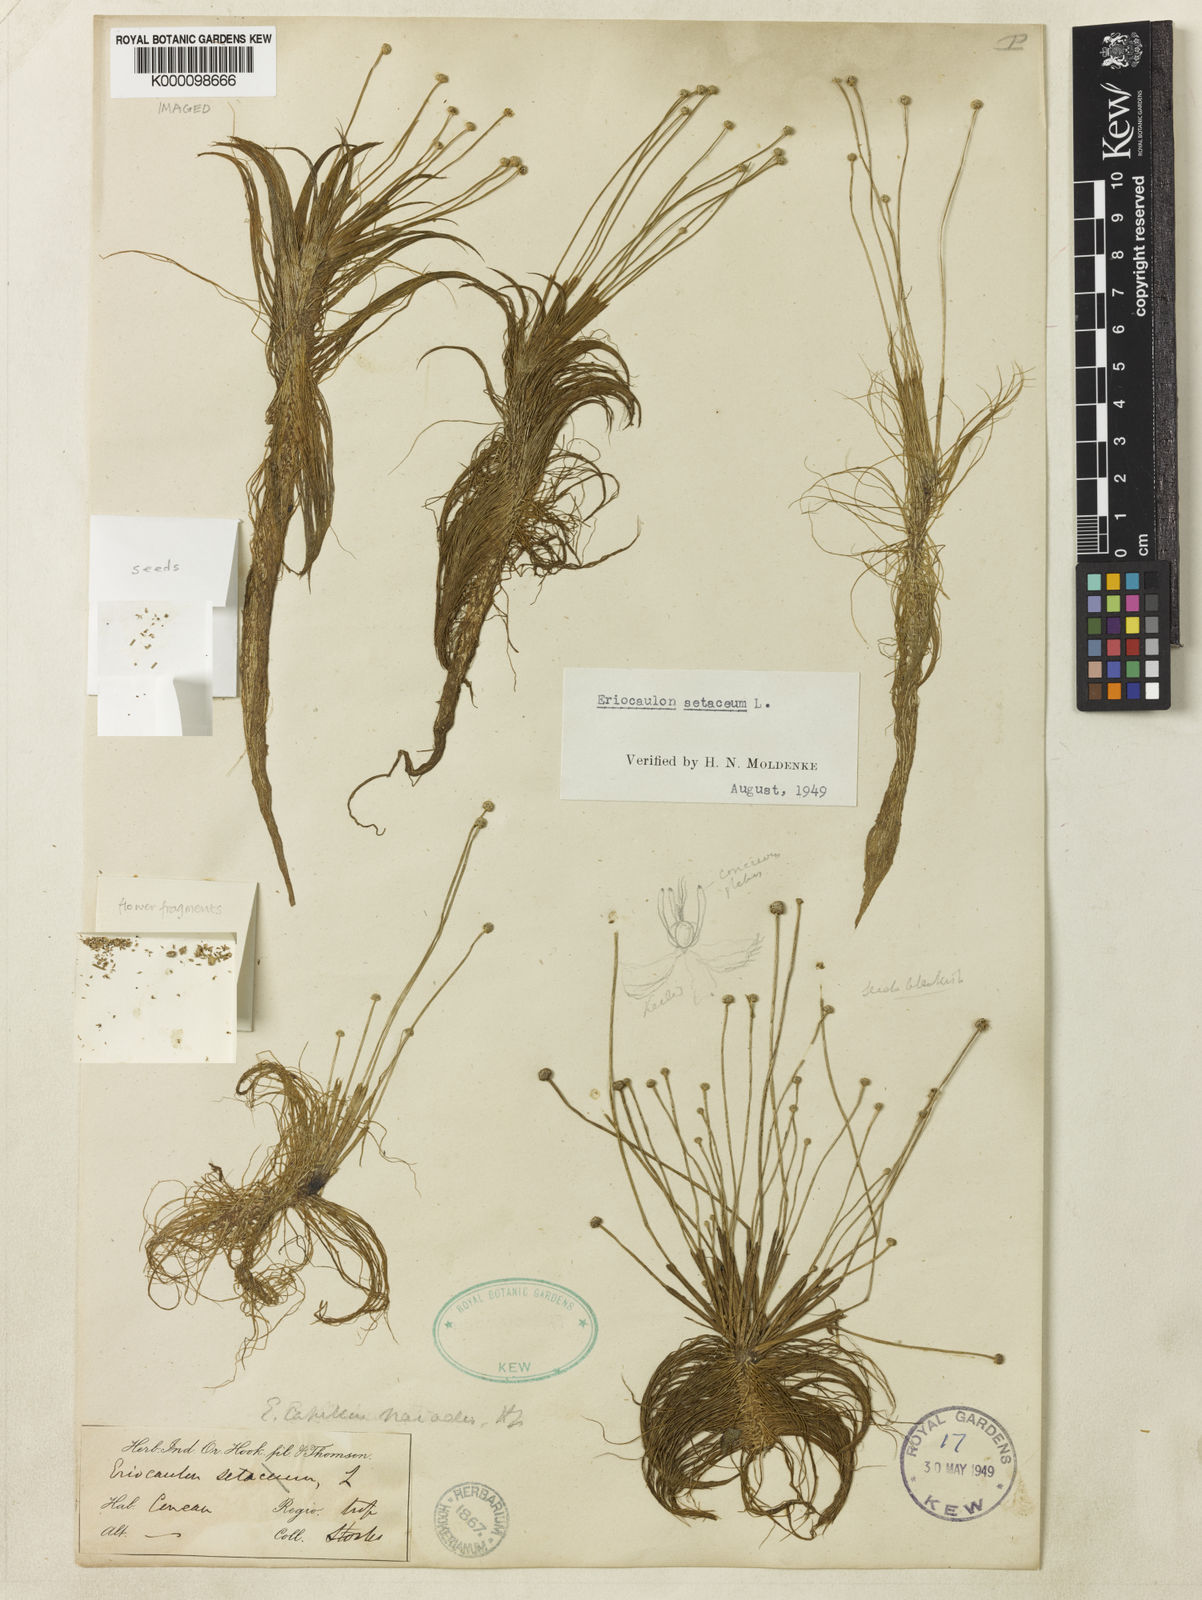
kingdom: Plantae
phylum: Tracheophyta
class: Liliopsida
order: Poales
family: Eriocaulaceae
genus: Eriocaulon
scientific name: Eriocaulon setaceum
